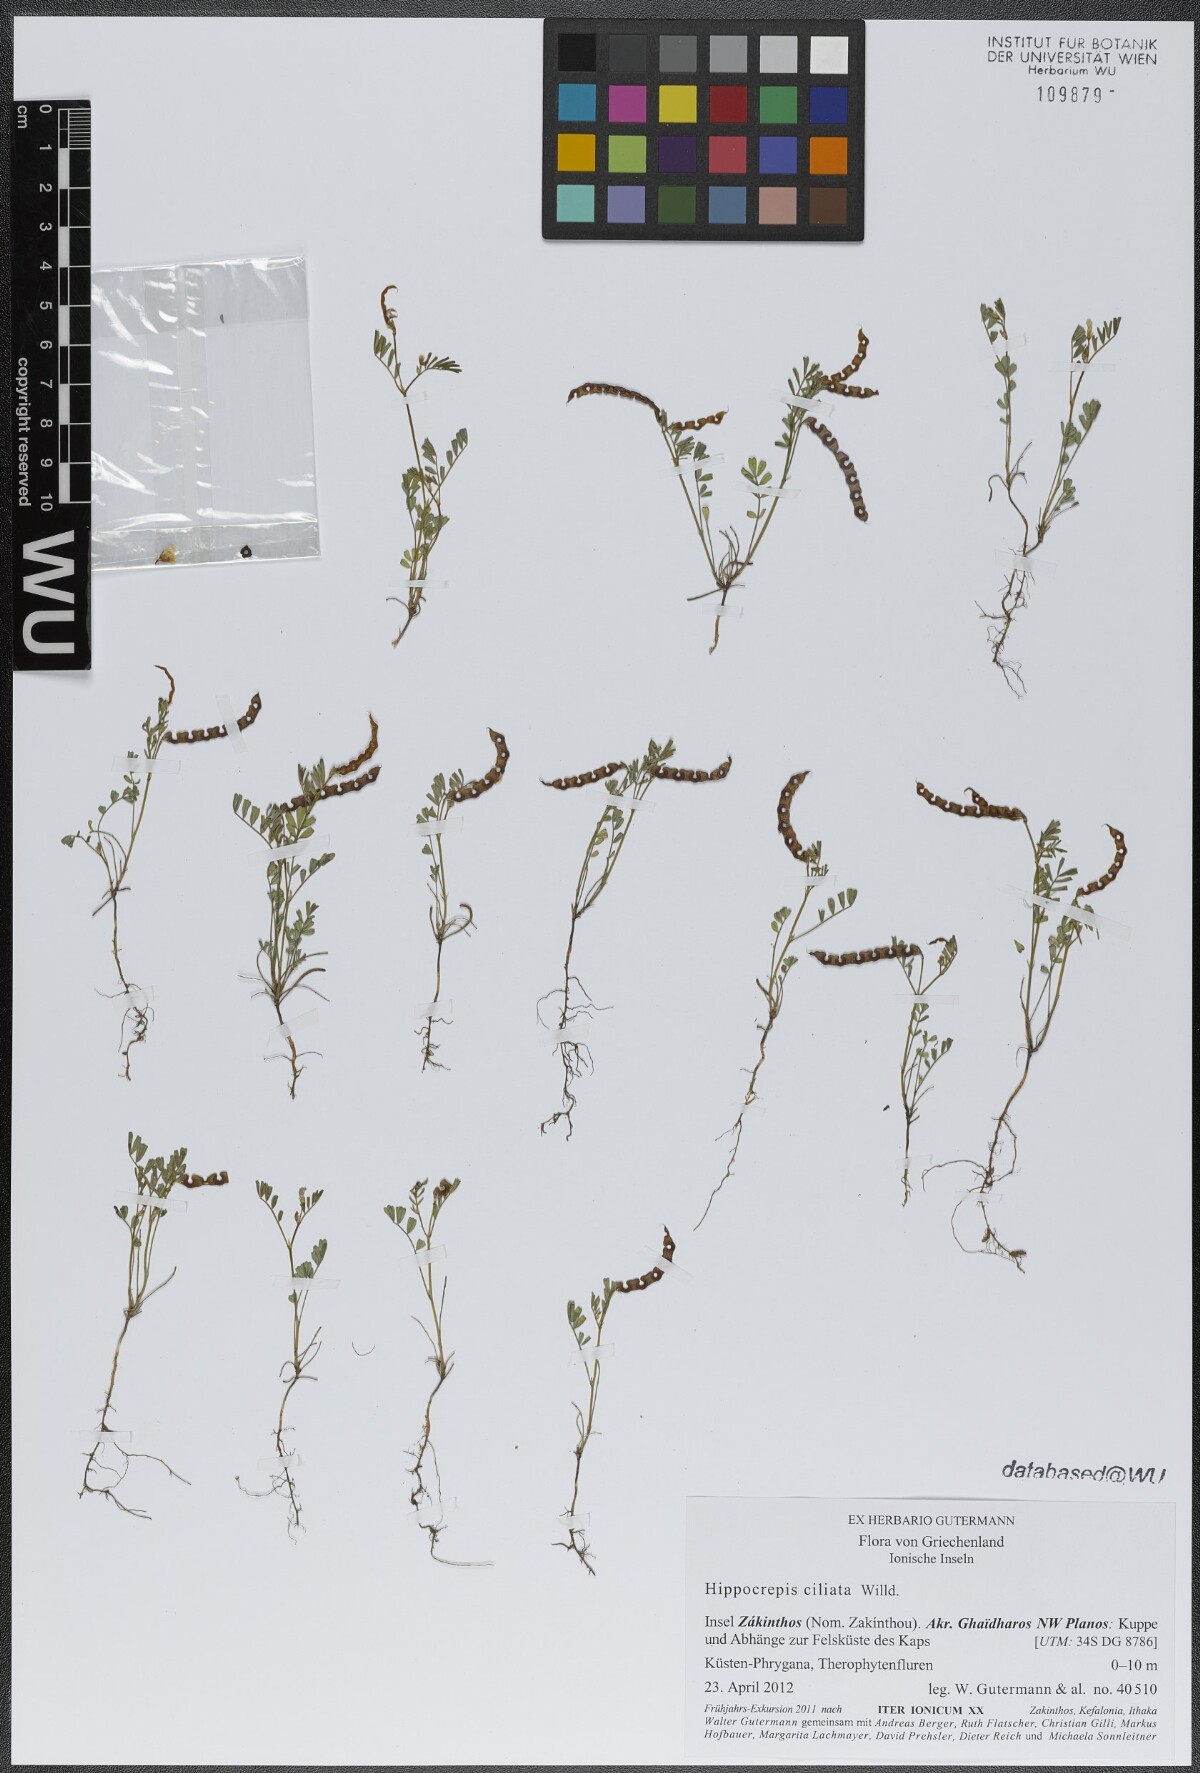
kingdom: Plantae
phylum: Tracheophyta
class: Magnoliopsida
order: Fabales
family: Fabaceae
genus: Hippocrepis
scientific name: Hippocrepis ciliata
